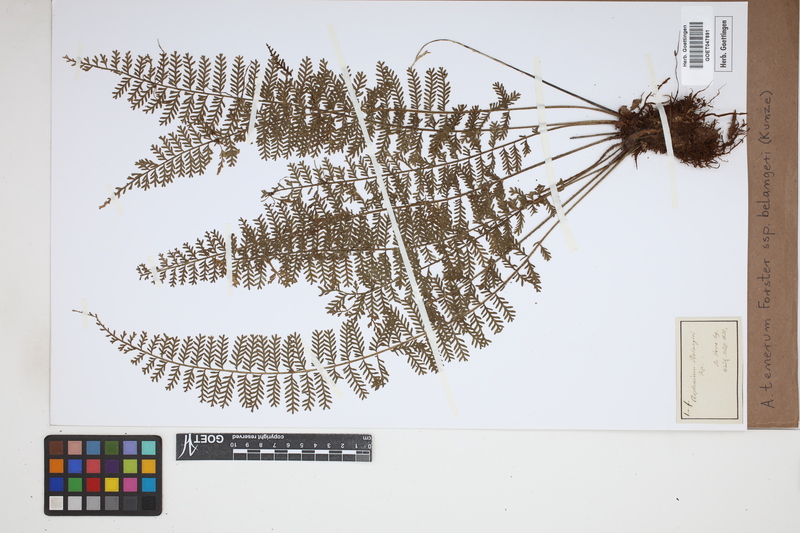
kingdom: Plantae
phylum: Tracheophyta
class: Polypodiopsida
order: Polypodiales
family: Aspleniaceae
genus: Asplenium
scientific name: Asplenium tenerum
